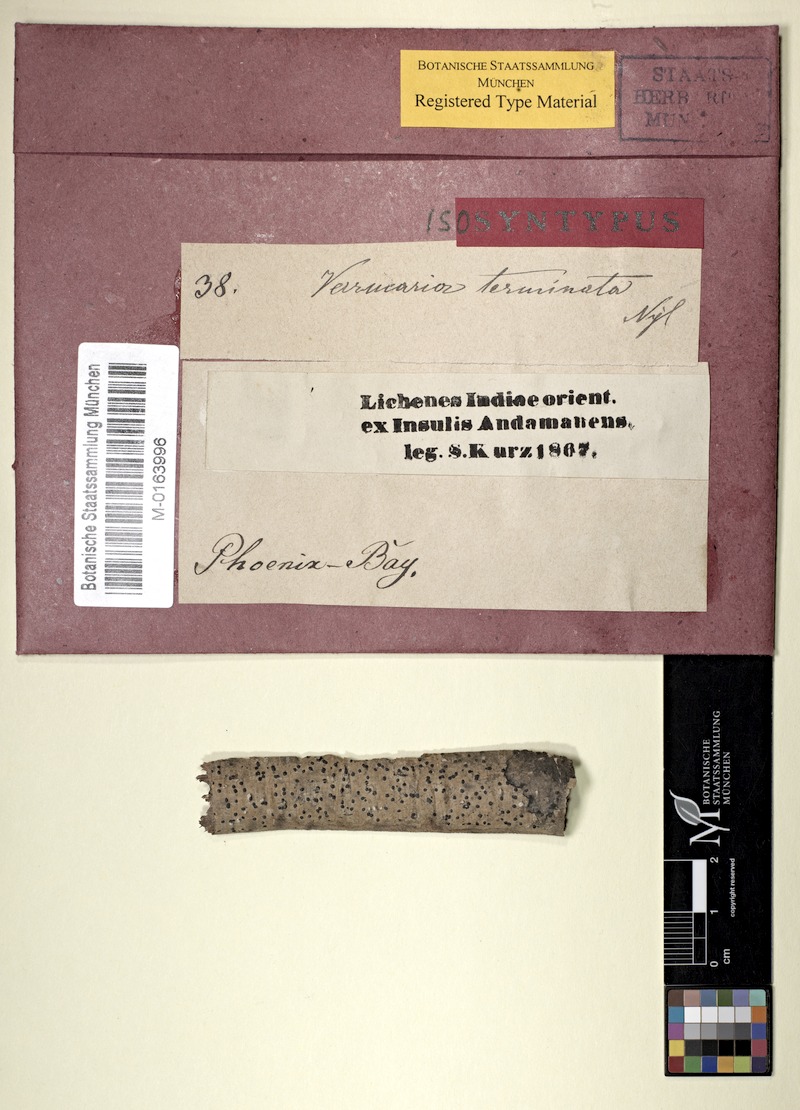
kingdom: Fungi
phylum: Ascomycota
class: Dothideomycetes
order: Monoblastiales
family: Monoblastiaceae
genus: Anisomeridium
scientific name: Anisomeridium terminatum
